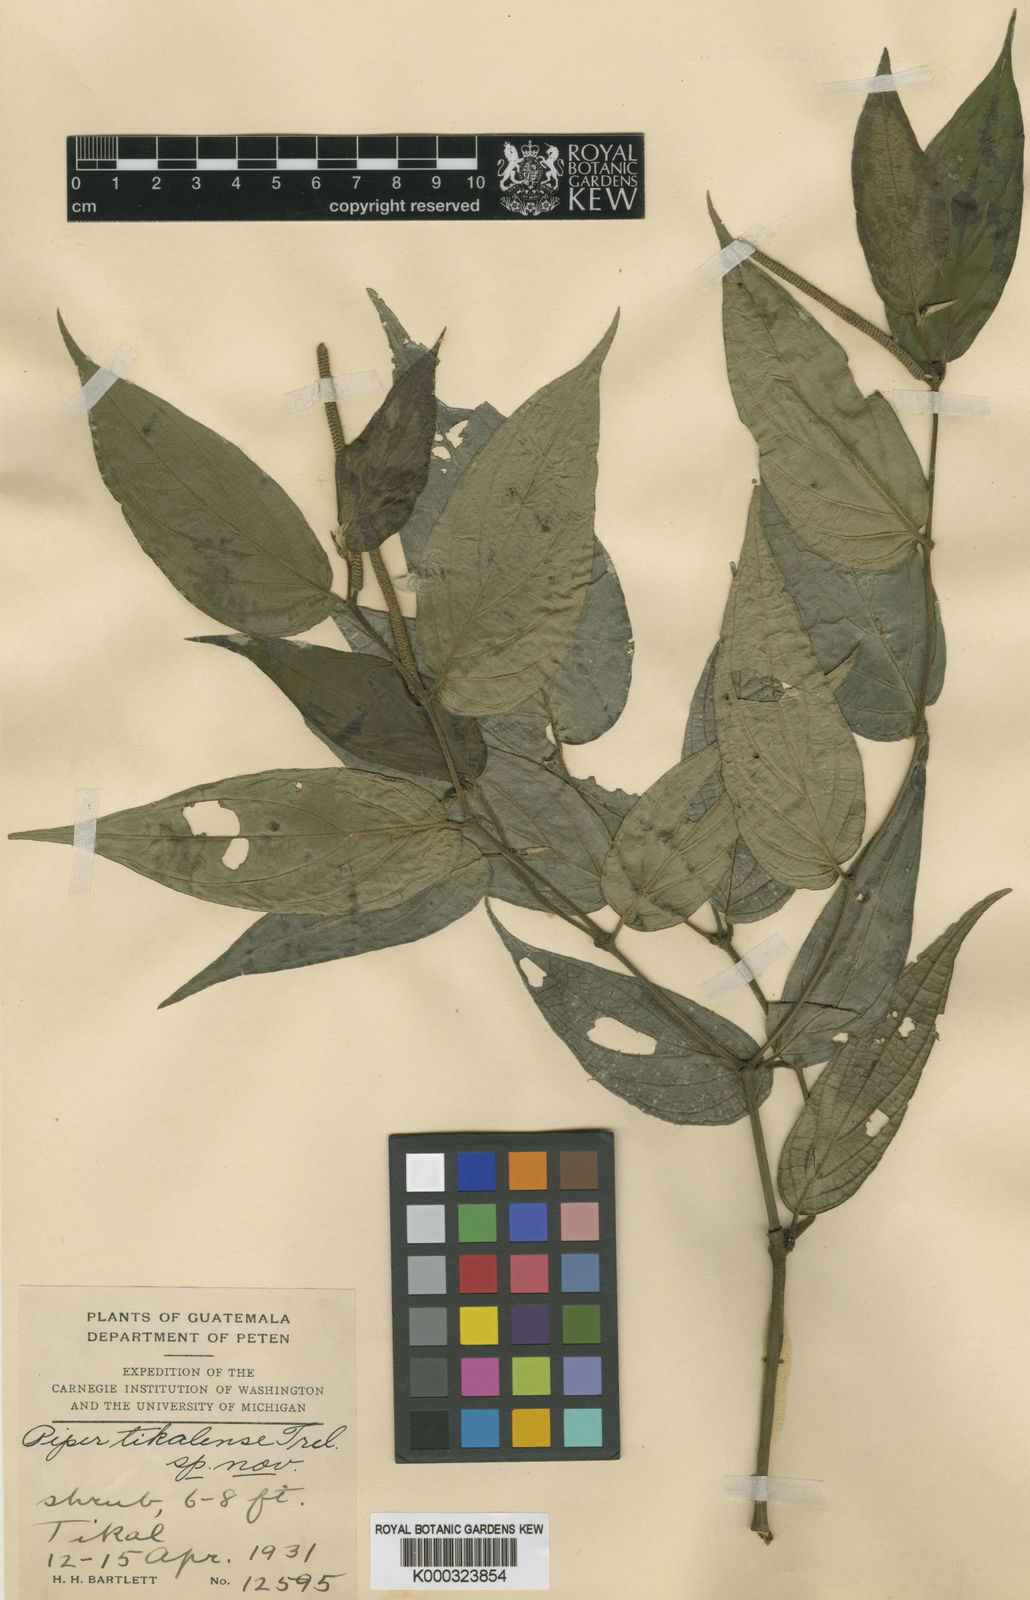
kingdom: Plantae
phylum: Tracheophyta
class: Magnoliopsida
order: Piperales
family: Piperaceae
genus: Piper
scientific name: Piper cayoense
